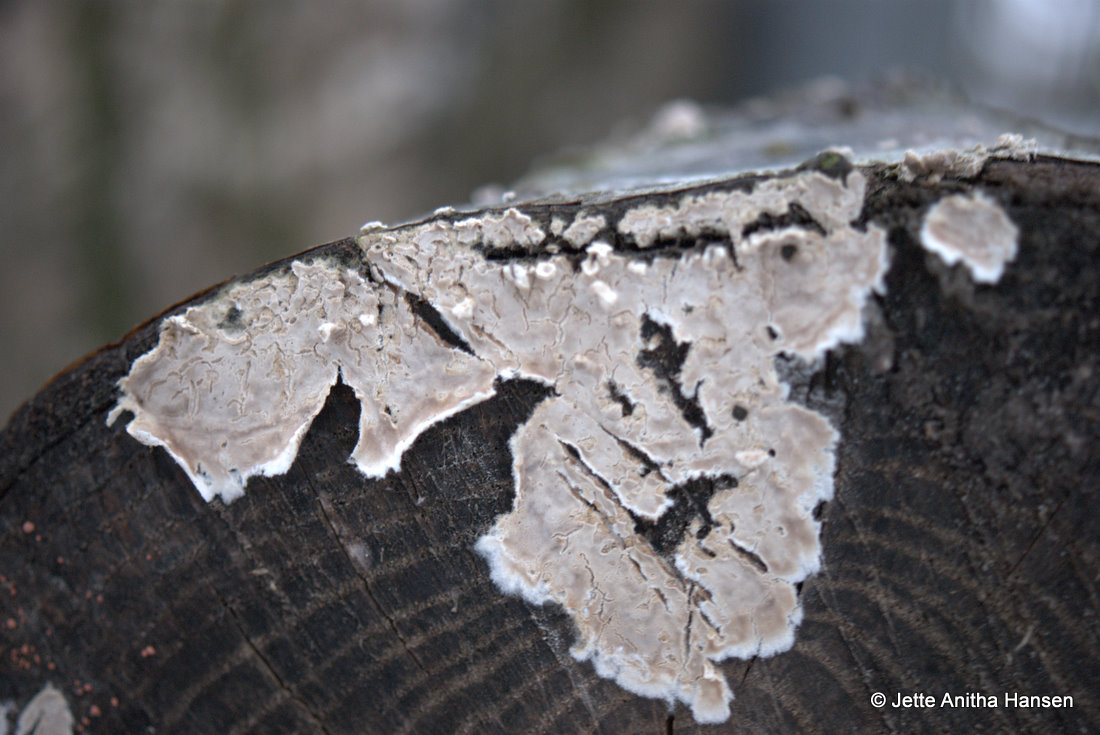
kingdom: Fungi
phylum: Basidiomycota
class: Agaricomycetes
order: Agaricales
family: Physalacriaceae
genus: Cylindrobasidium
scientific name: Cylindrobasidium evolvens
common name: sprækkehinde
